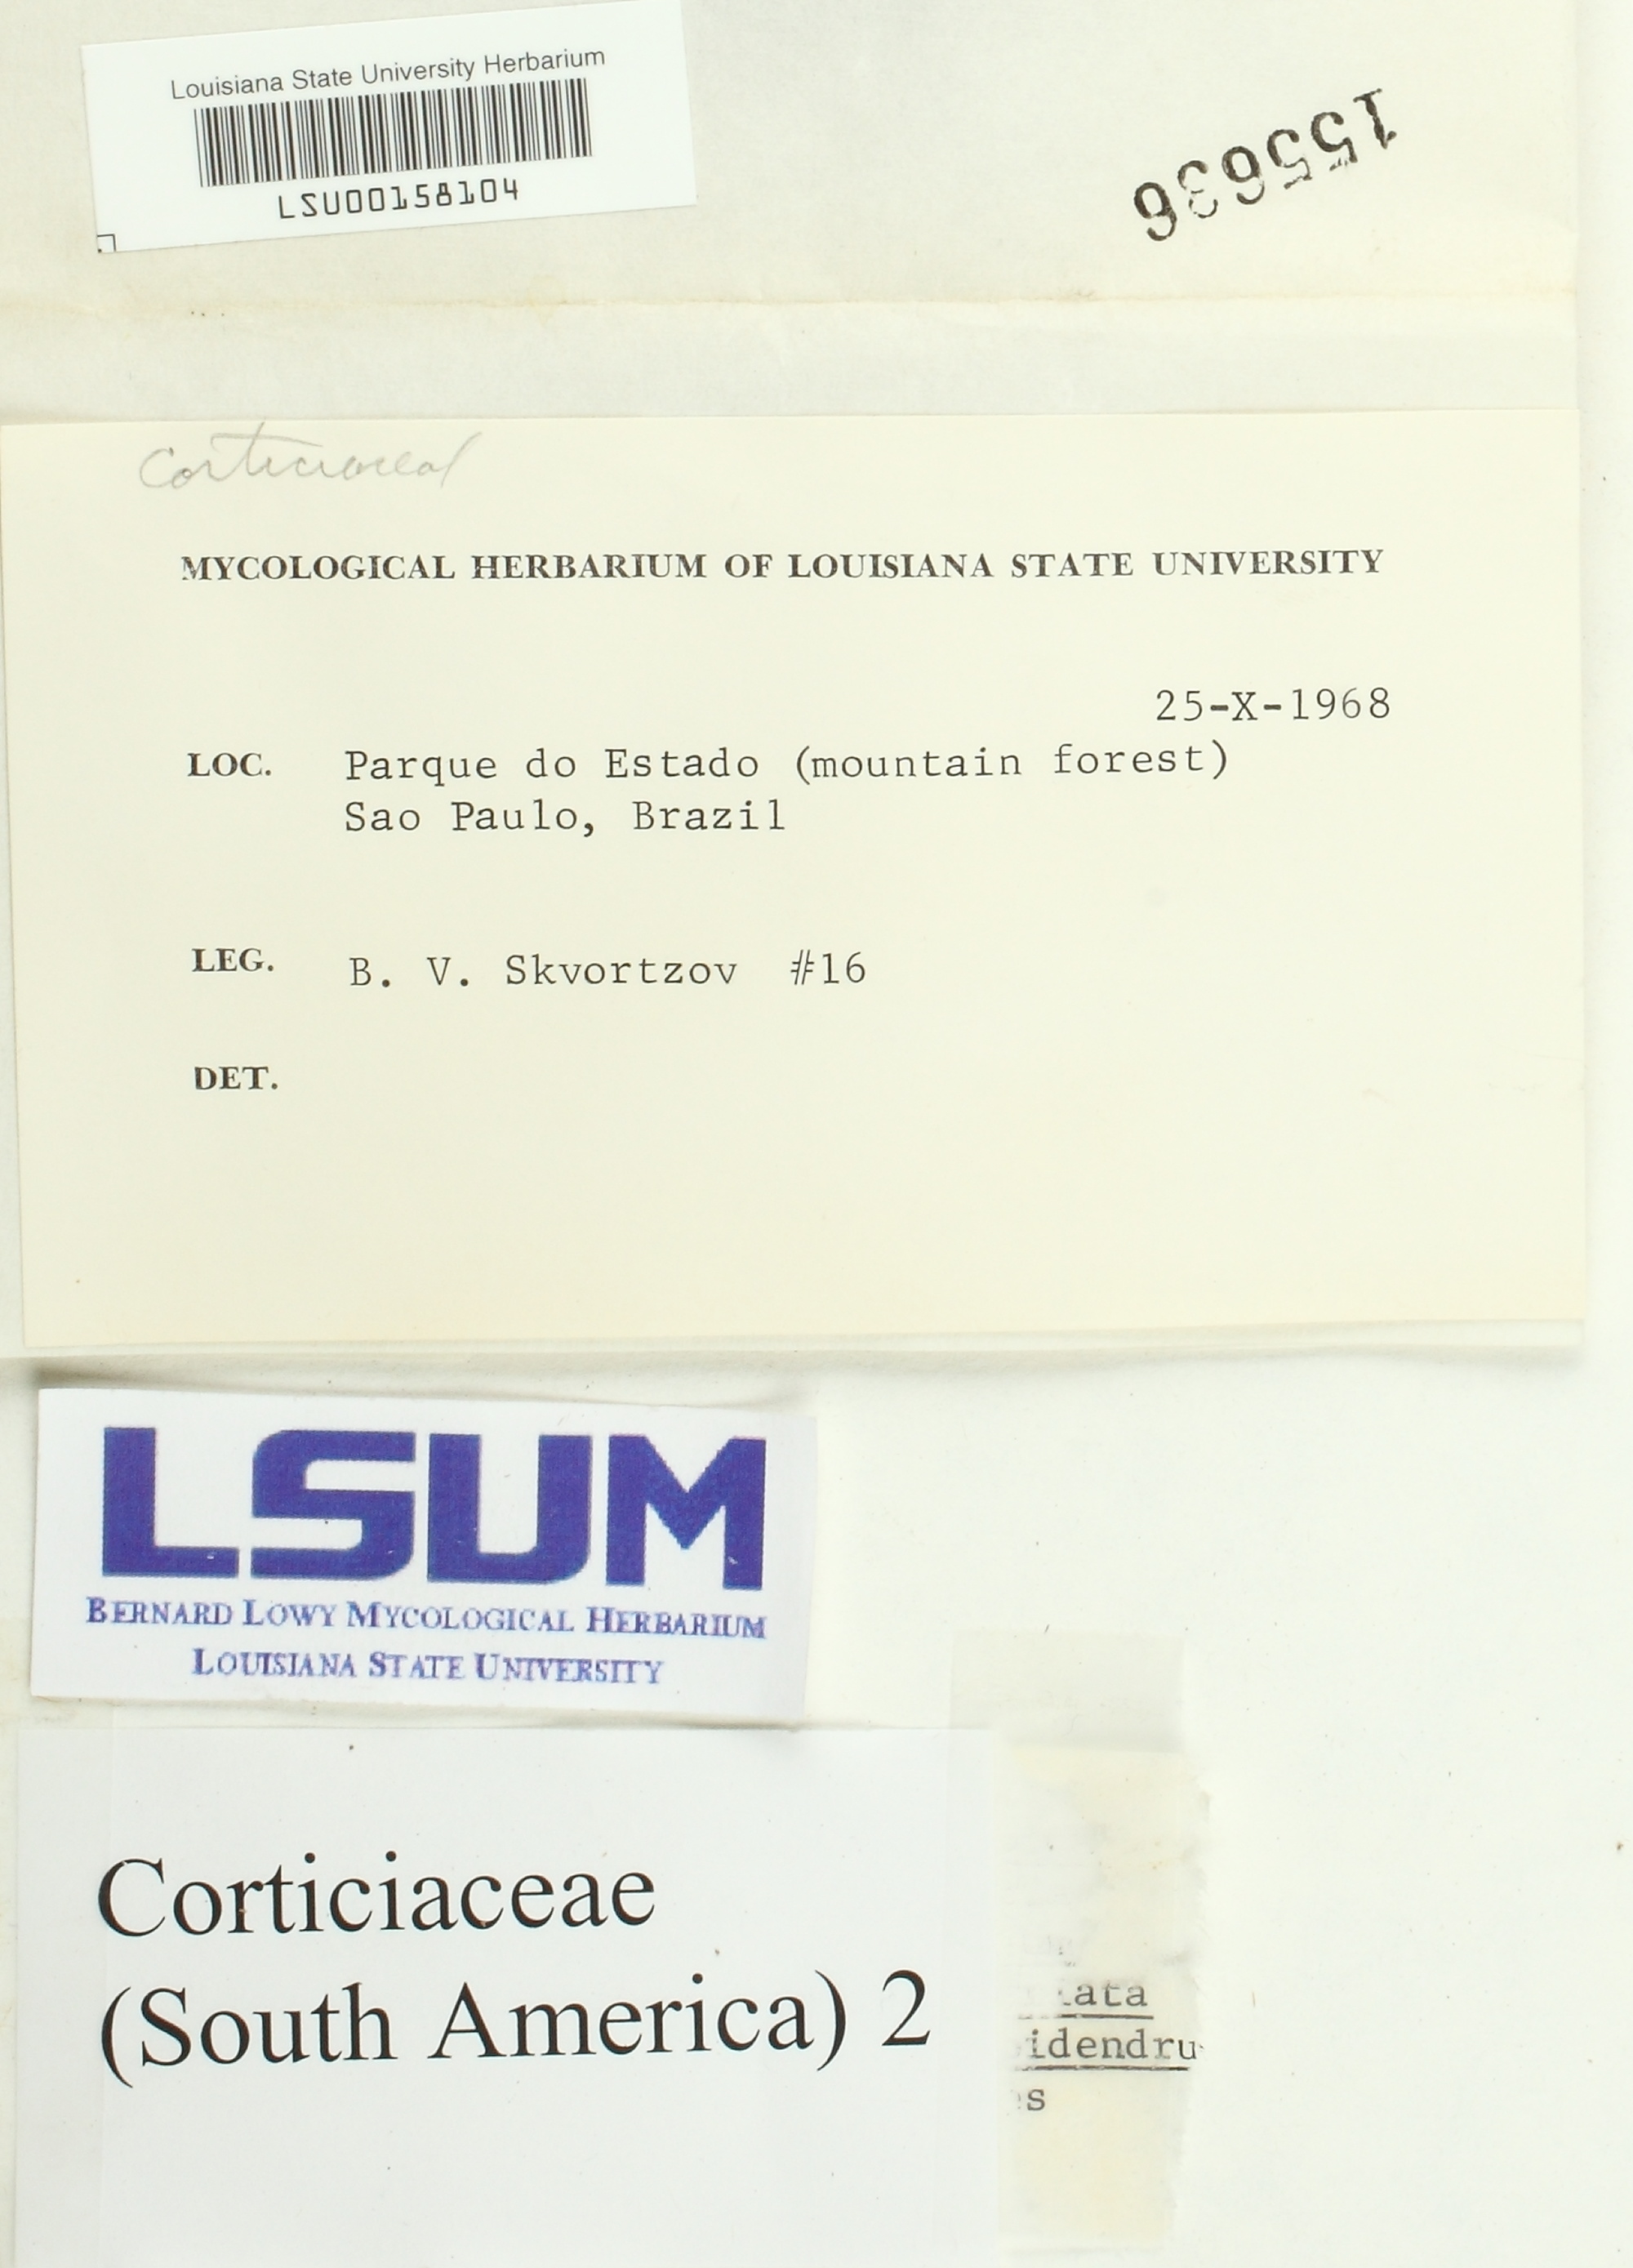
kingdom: Fungi
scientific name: Fungi
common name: Fungi
